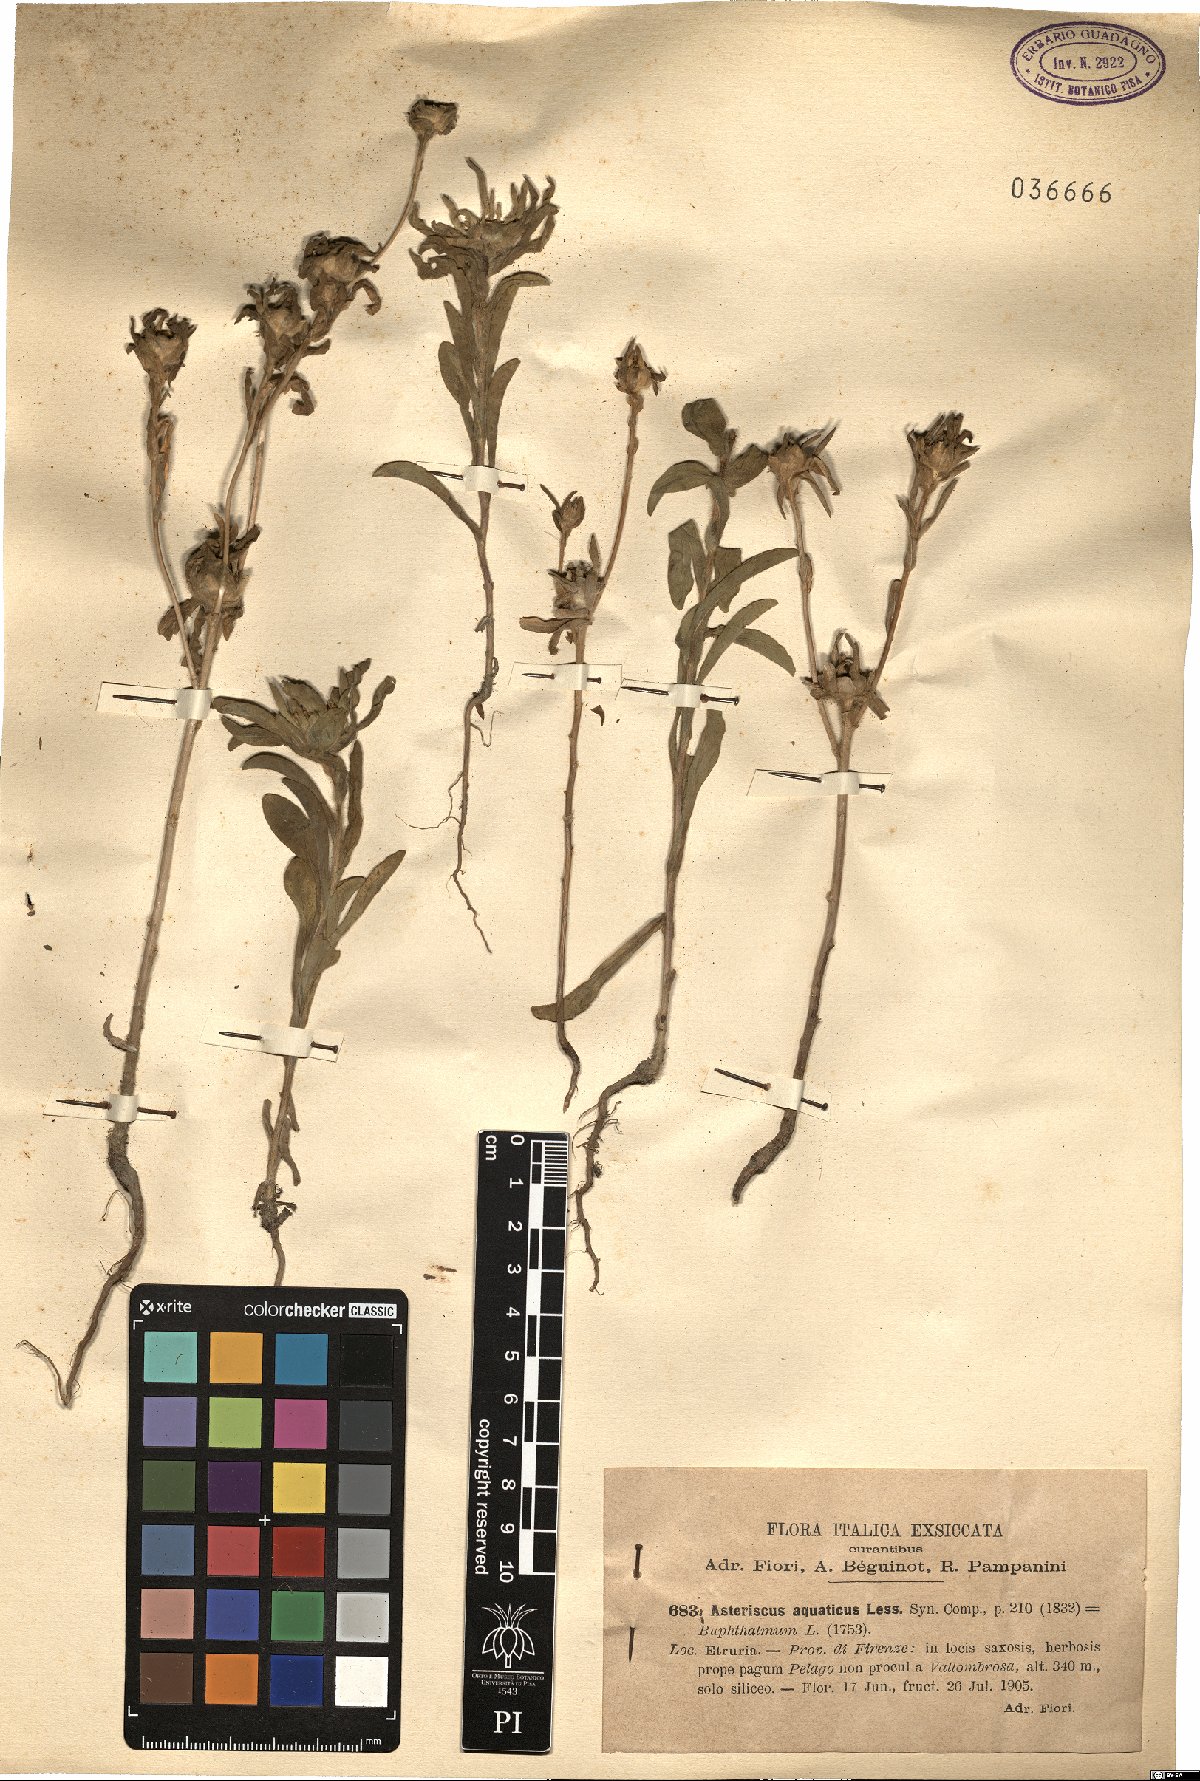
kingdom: Plantae
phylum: Tracheophyta
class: Magnoliopsida
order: Asterales
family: Asteraceae
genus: Asteriscus
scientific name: Asteriscus aquaticus
